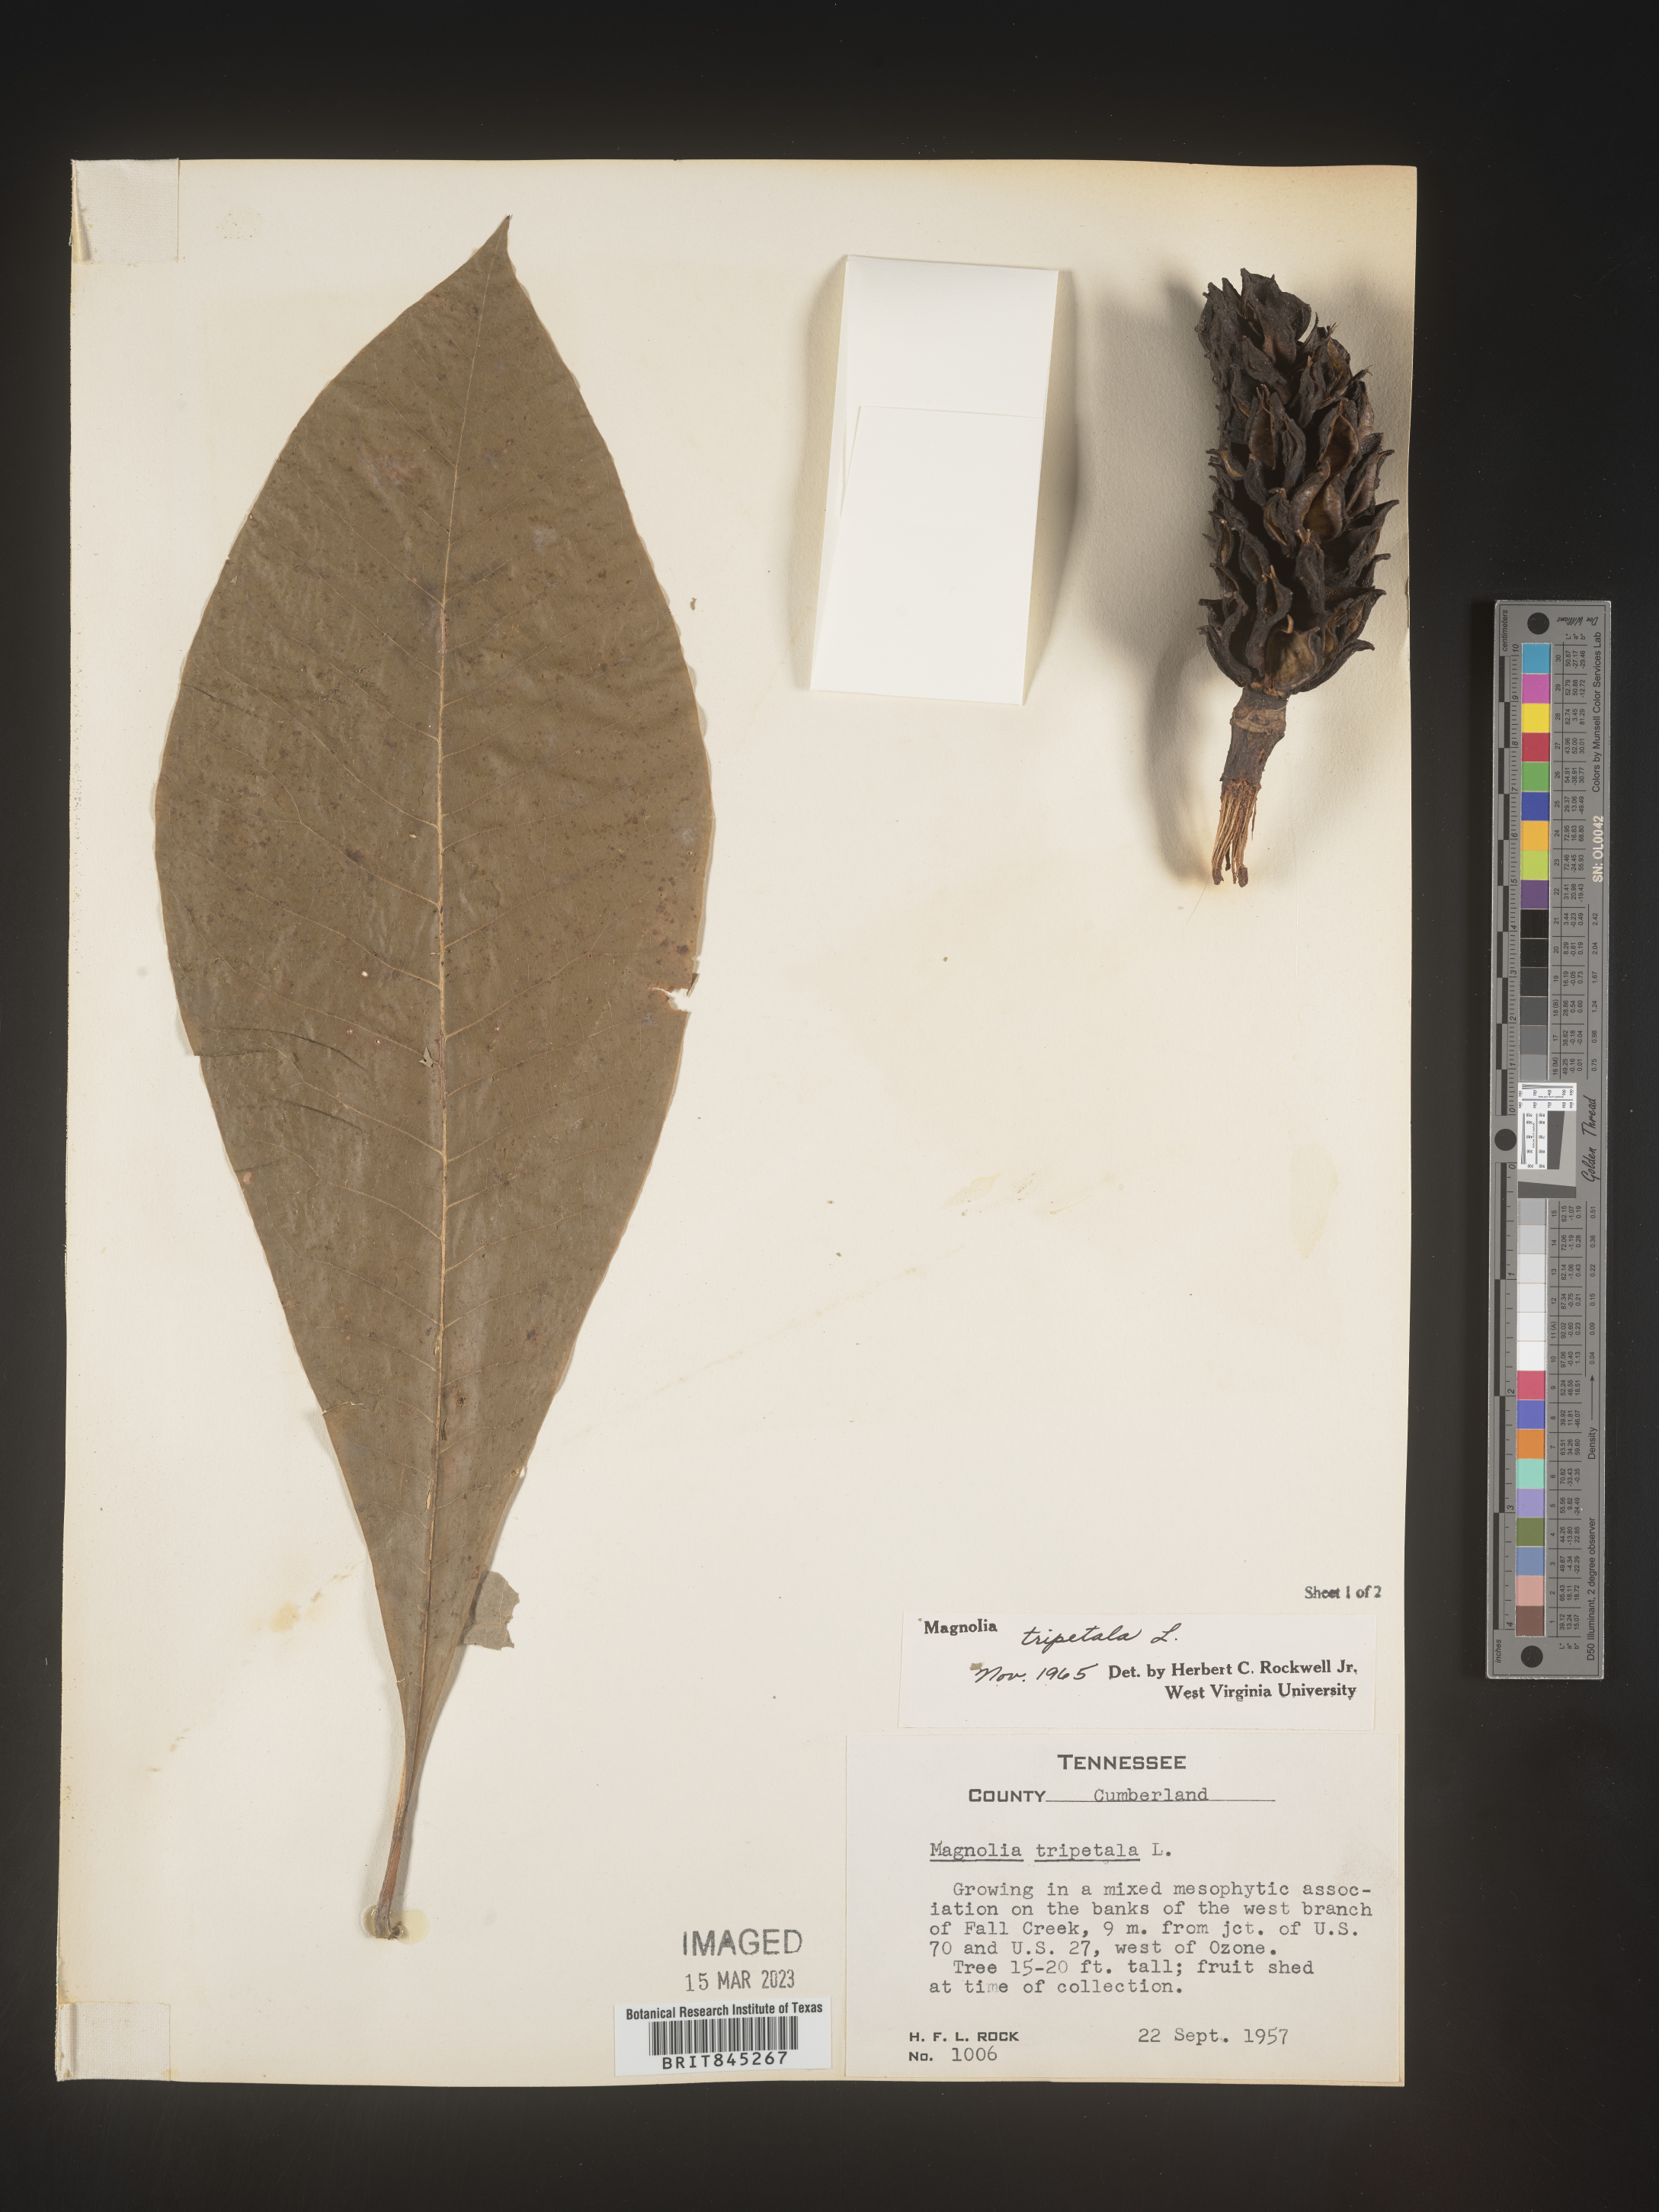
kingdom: Plantae
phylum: Tracheophyta
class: Magnoliopsida
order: Magnoliales
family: Magnoliaceae
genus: Magnolia
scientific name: Magnolia tripetala
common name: Umbrella magnolia
